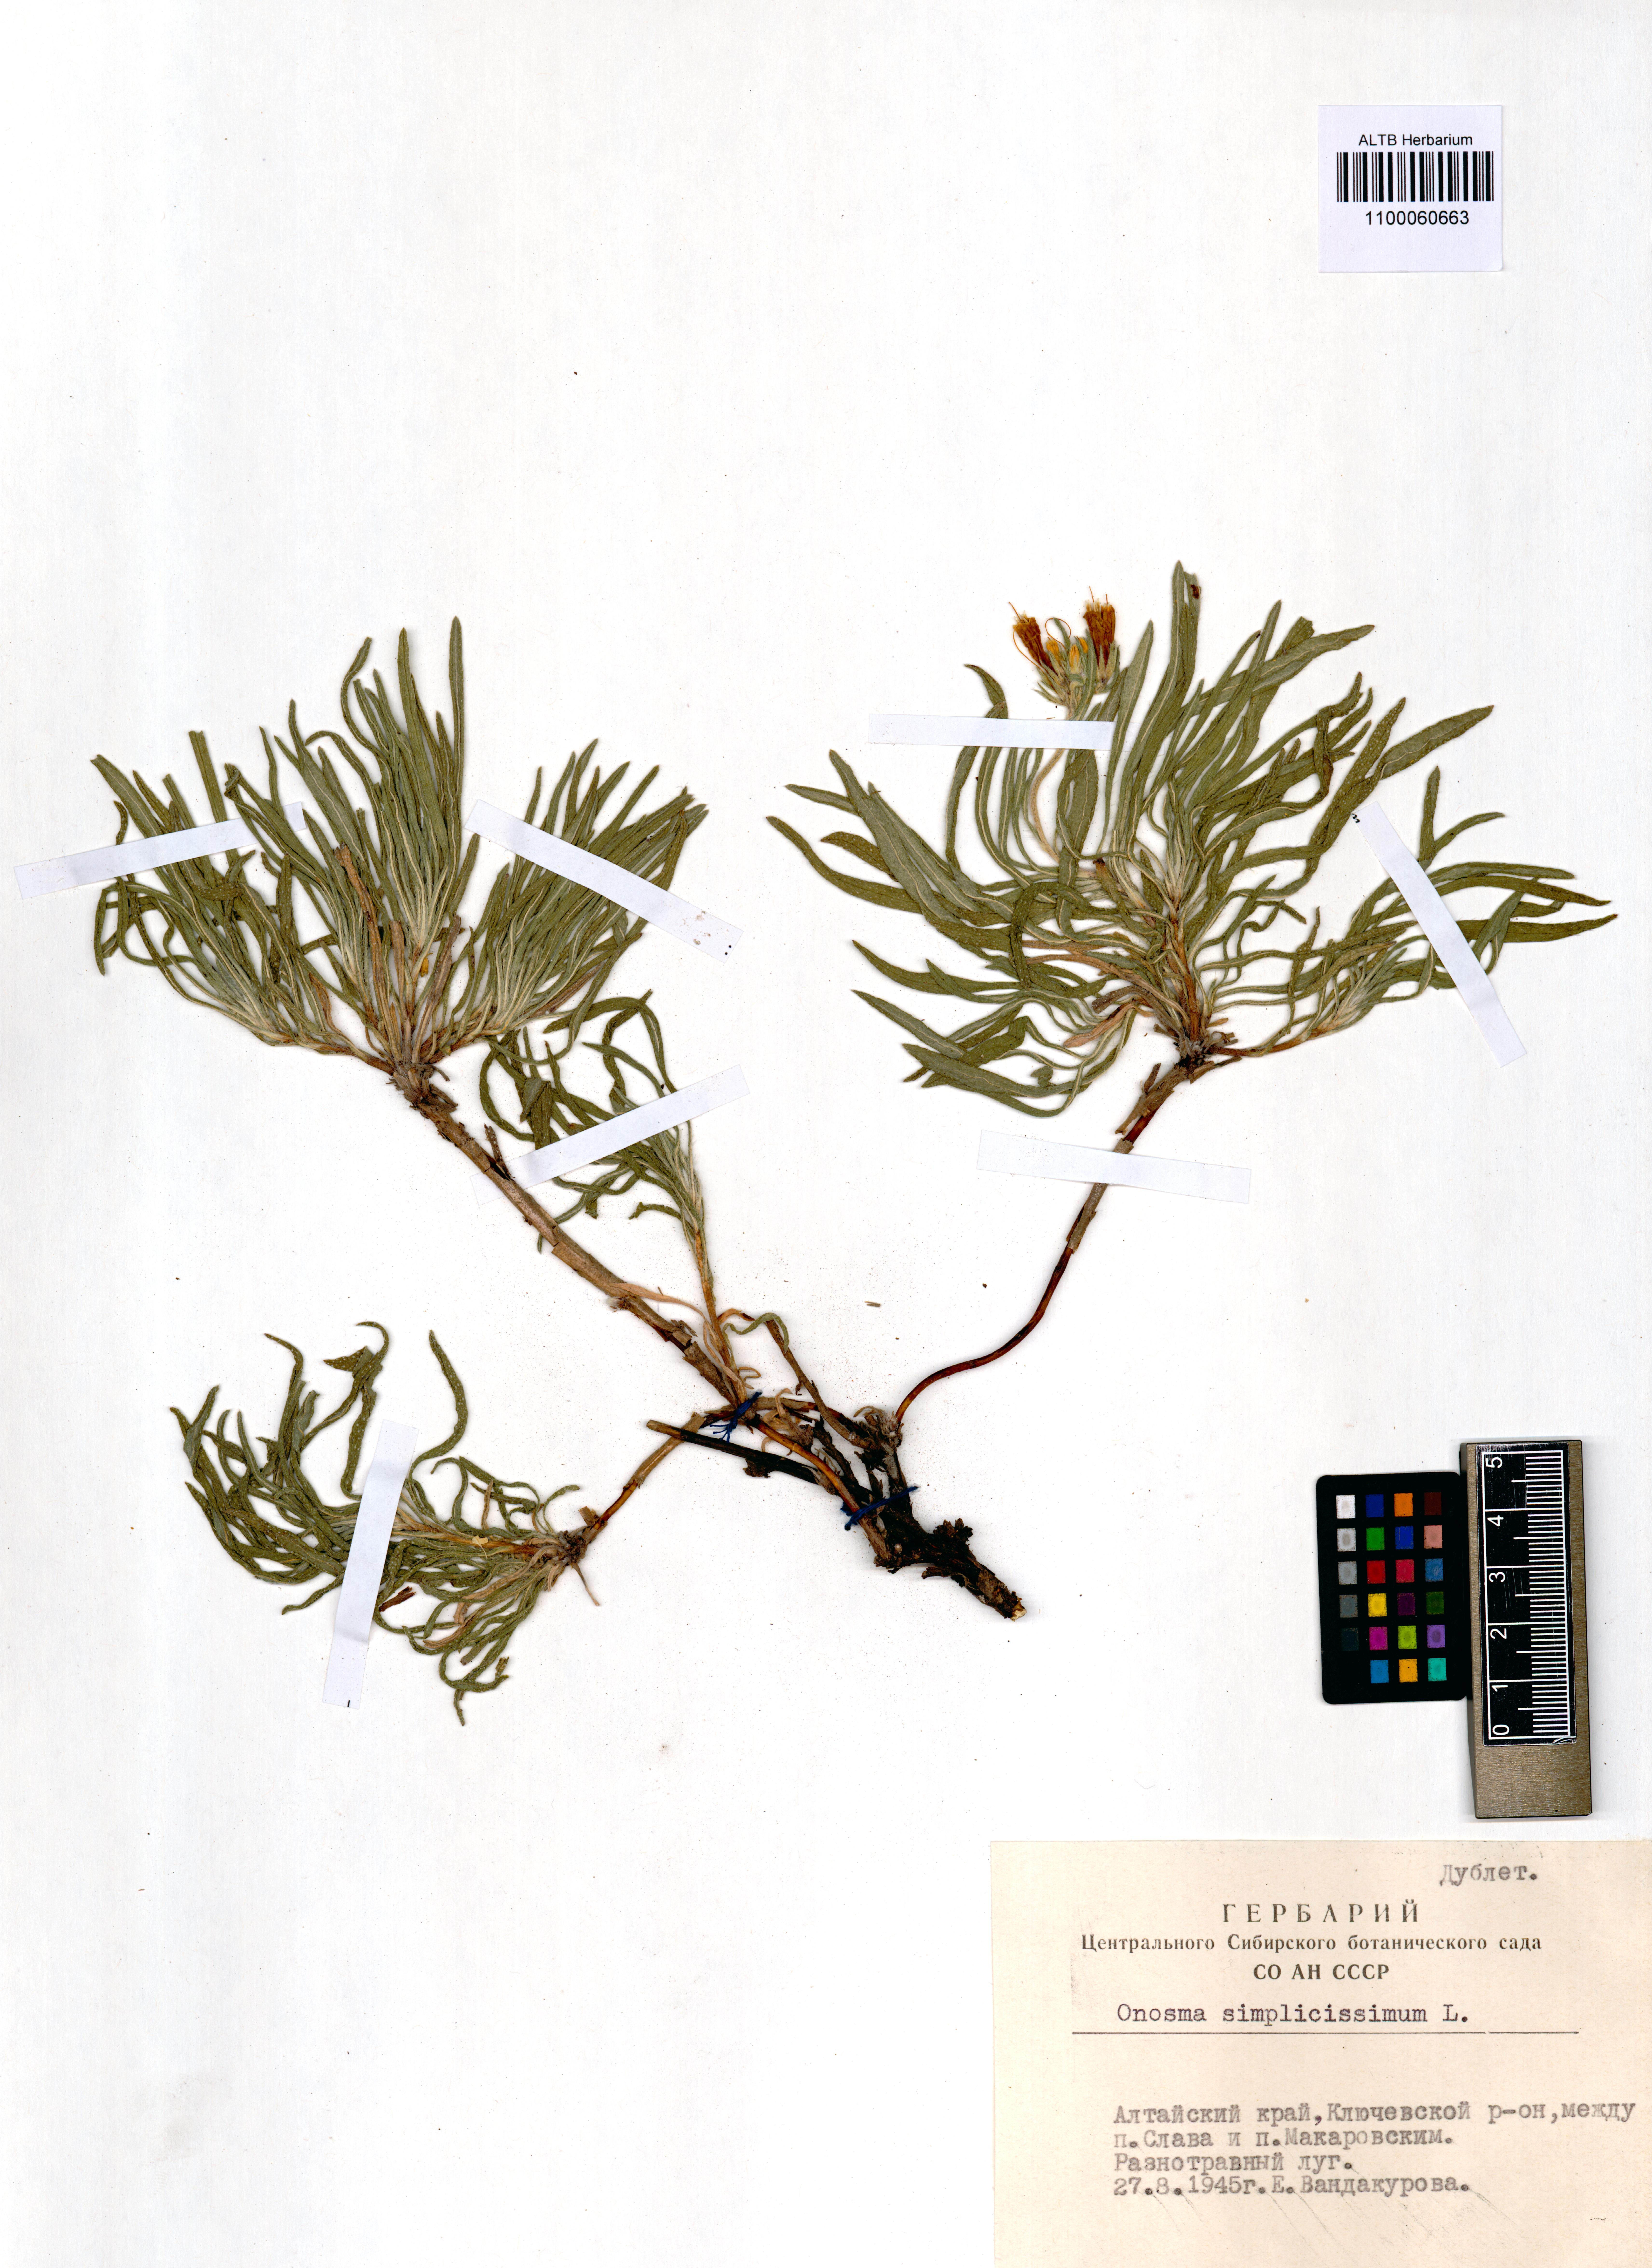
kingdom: Plantae
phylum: Tracheophyta
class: Magnoliopsida
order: Boraginales
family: Boraginaceae
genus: Onosma
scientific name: Onosma simplicissima
